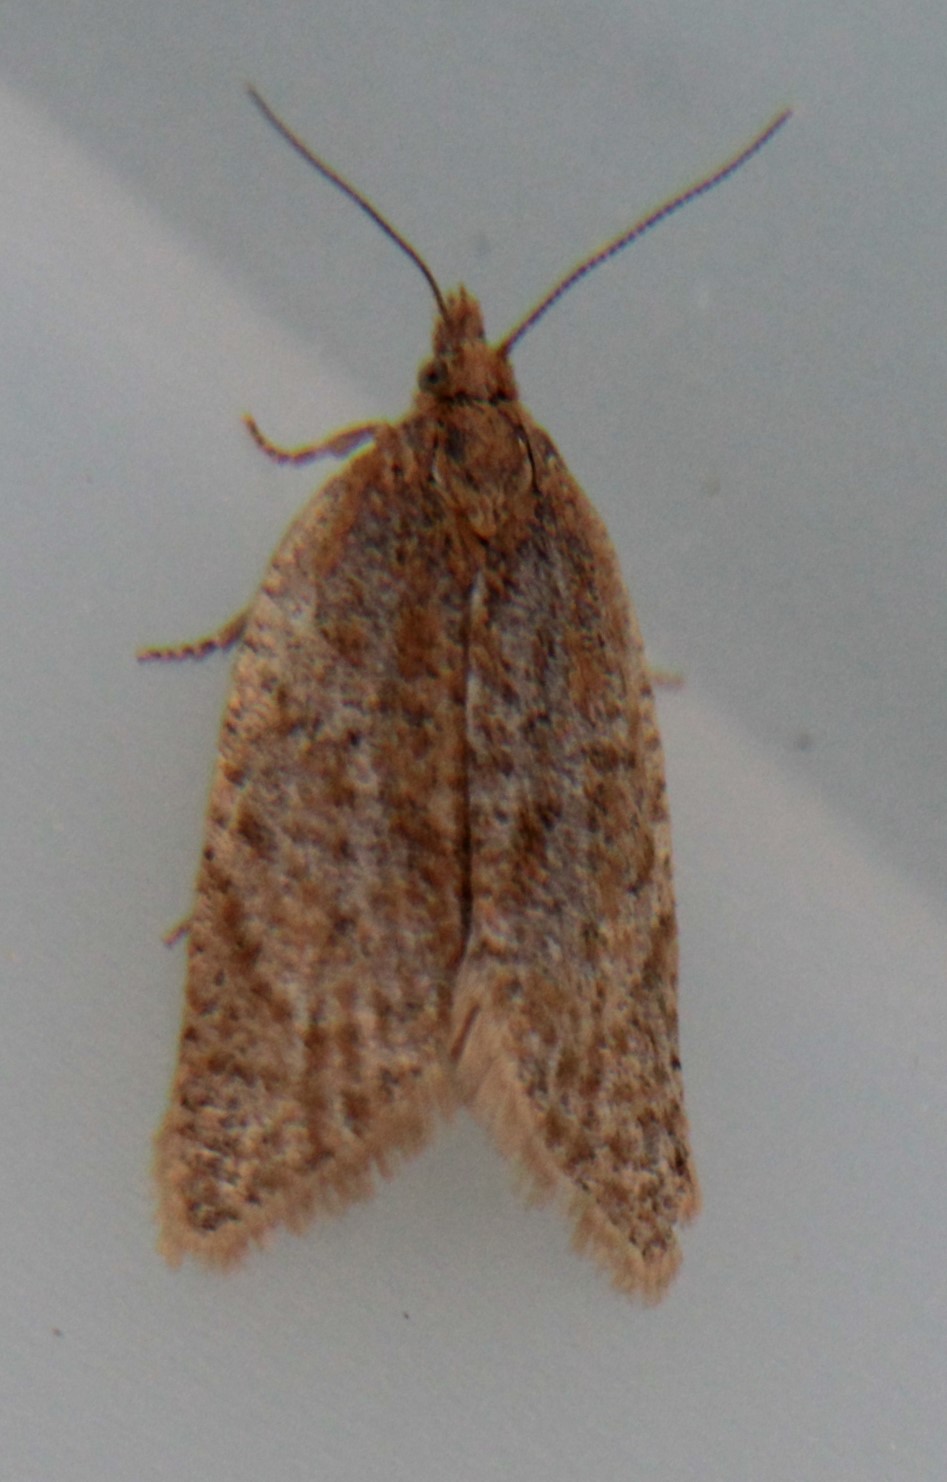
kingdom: Animalia
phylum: Arthropoda
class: Insecta
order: Lepidoptera
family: Tortricidae
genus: Clepsis
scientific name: Clepsis senecionana
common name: Obscure tortrix
